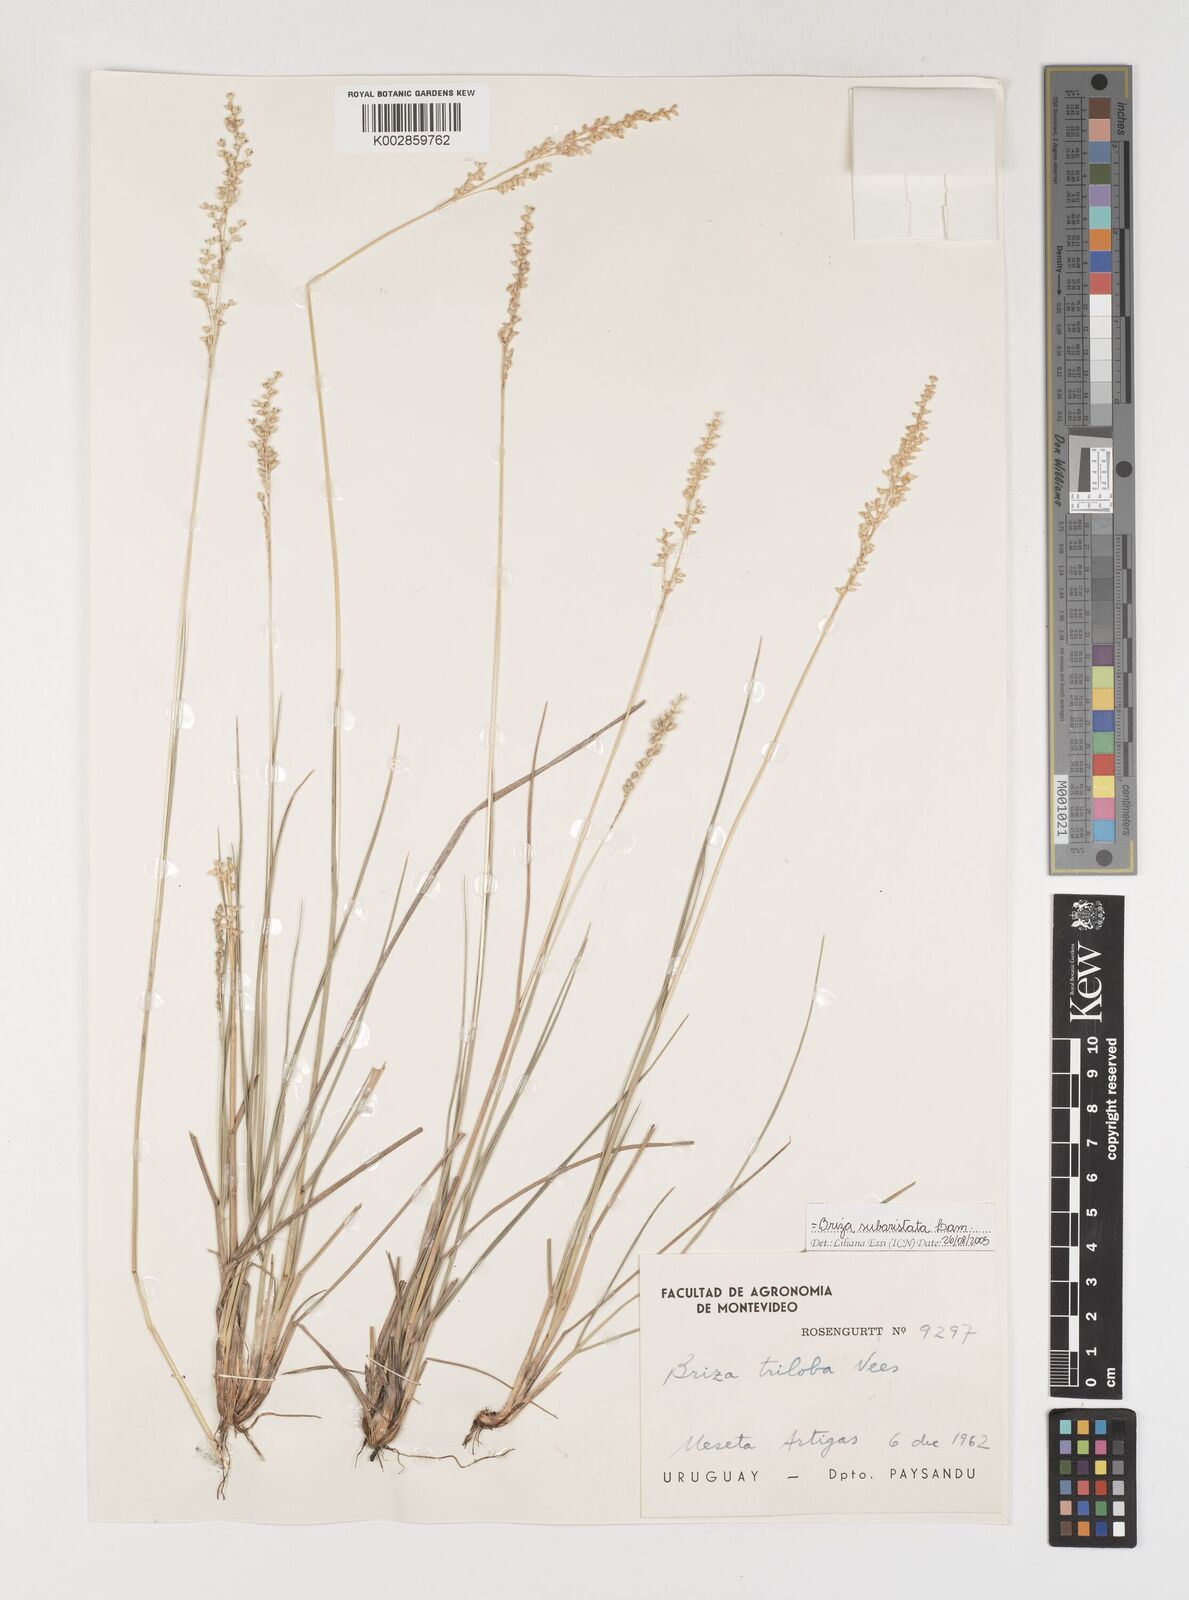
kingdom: Plantae
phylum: Tracheophyta
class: Liliopsida
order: Poales
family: Poaceae
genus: Chascolytrum
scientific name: Chascolytrum subaristatum
